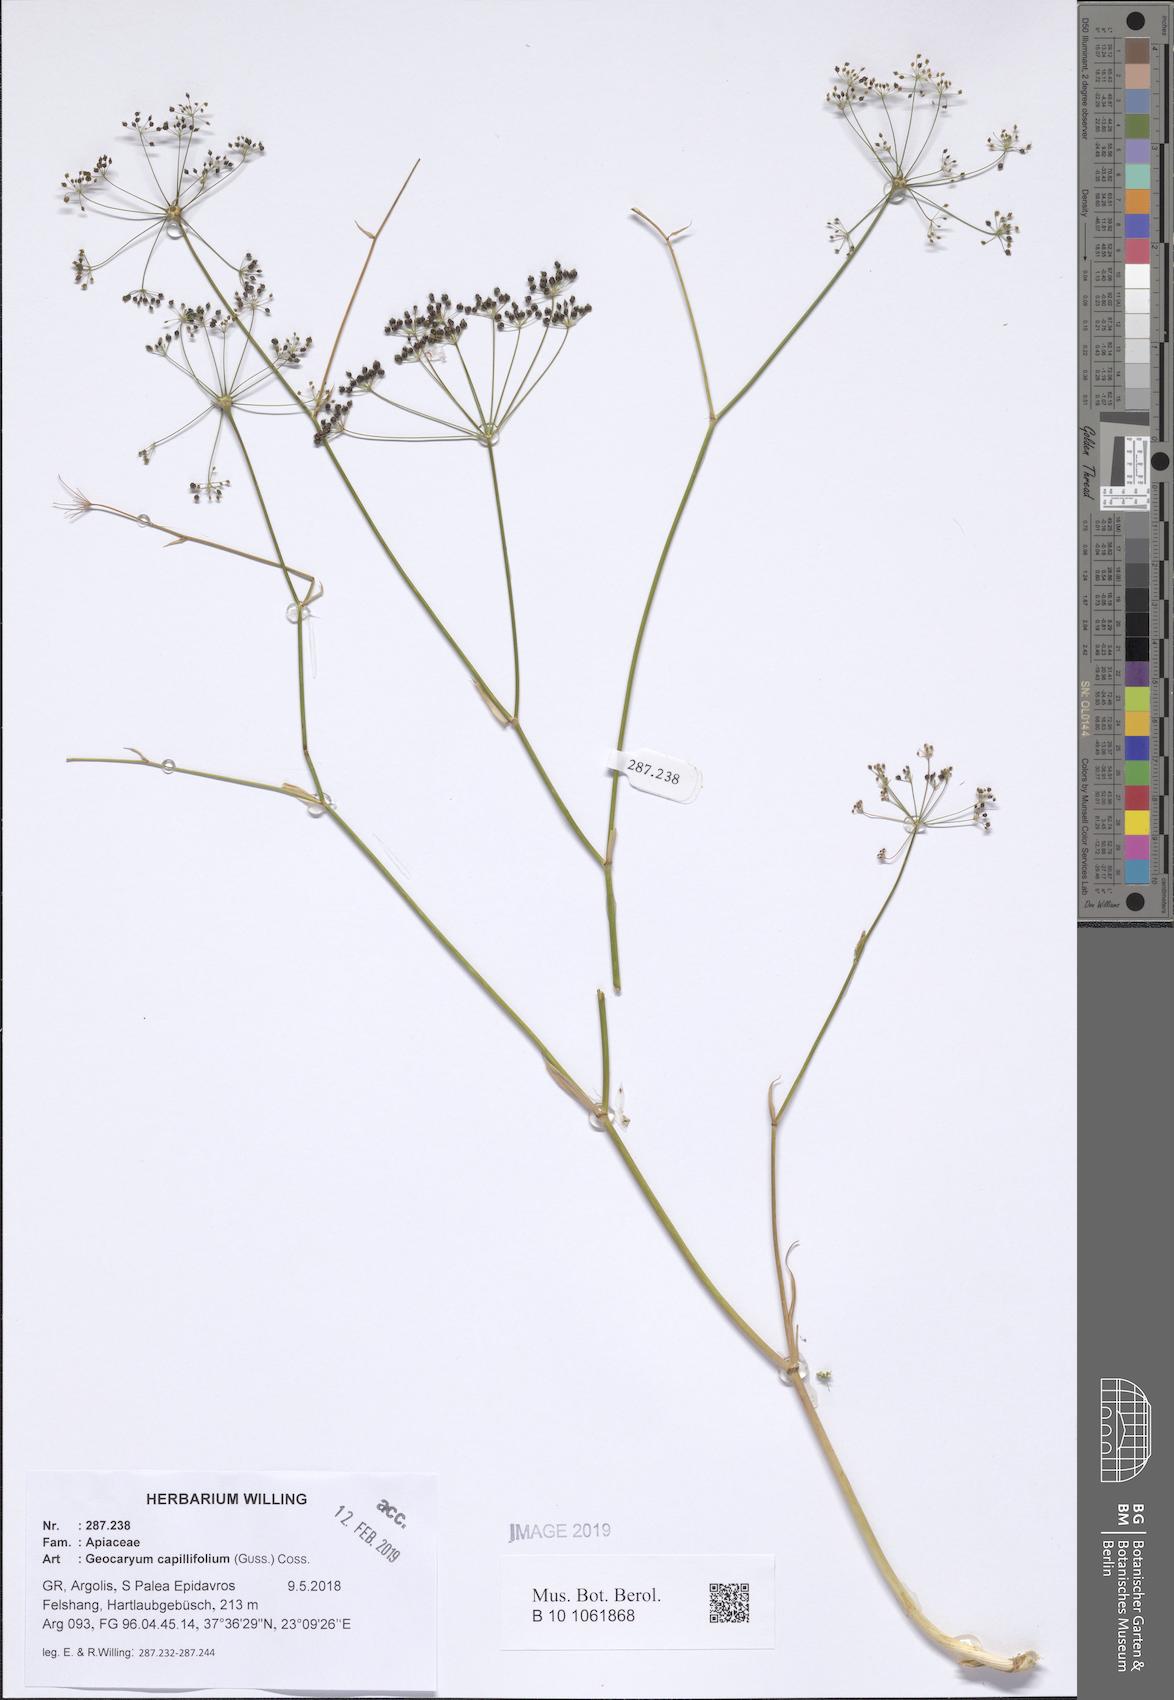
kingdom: Plantae
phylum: Tracheophyta
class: Magnoliopsida
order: Apiales
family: Apiaceae
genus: Geocaryum
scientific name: Geocaryum capillifolium
